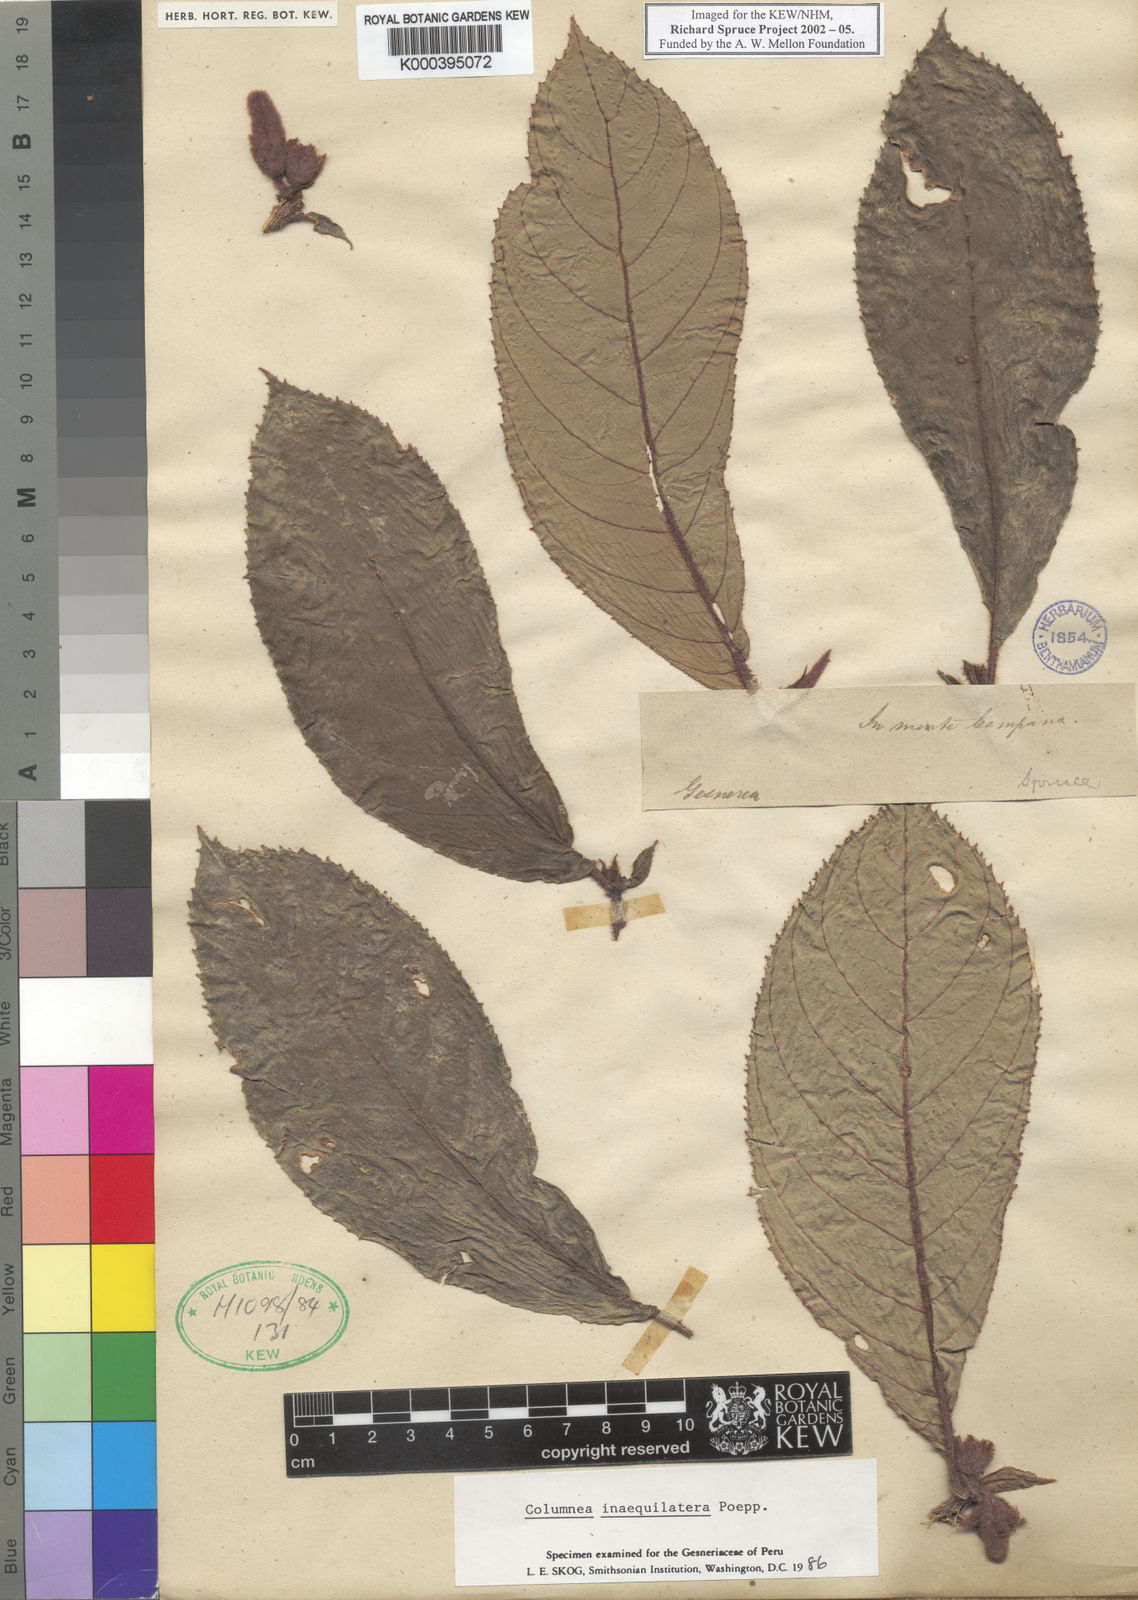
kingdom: Plantae
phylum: Tracheophyta
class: Magnoliopsida
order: Lamiales
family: Gesneriaceae
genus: Columnea
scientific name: Columnea inaequilatera
